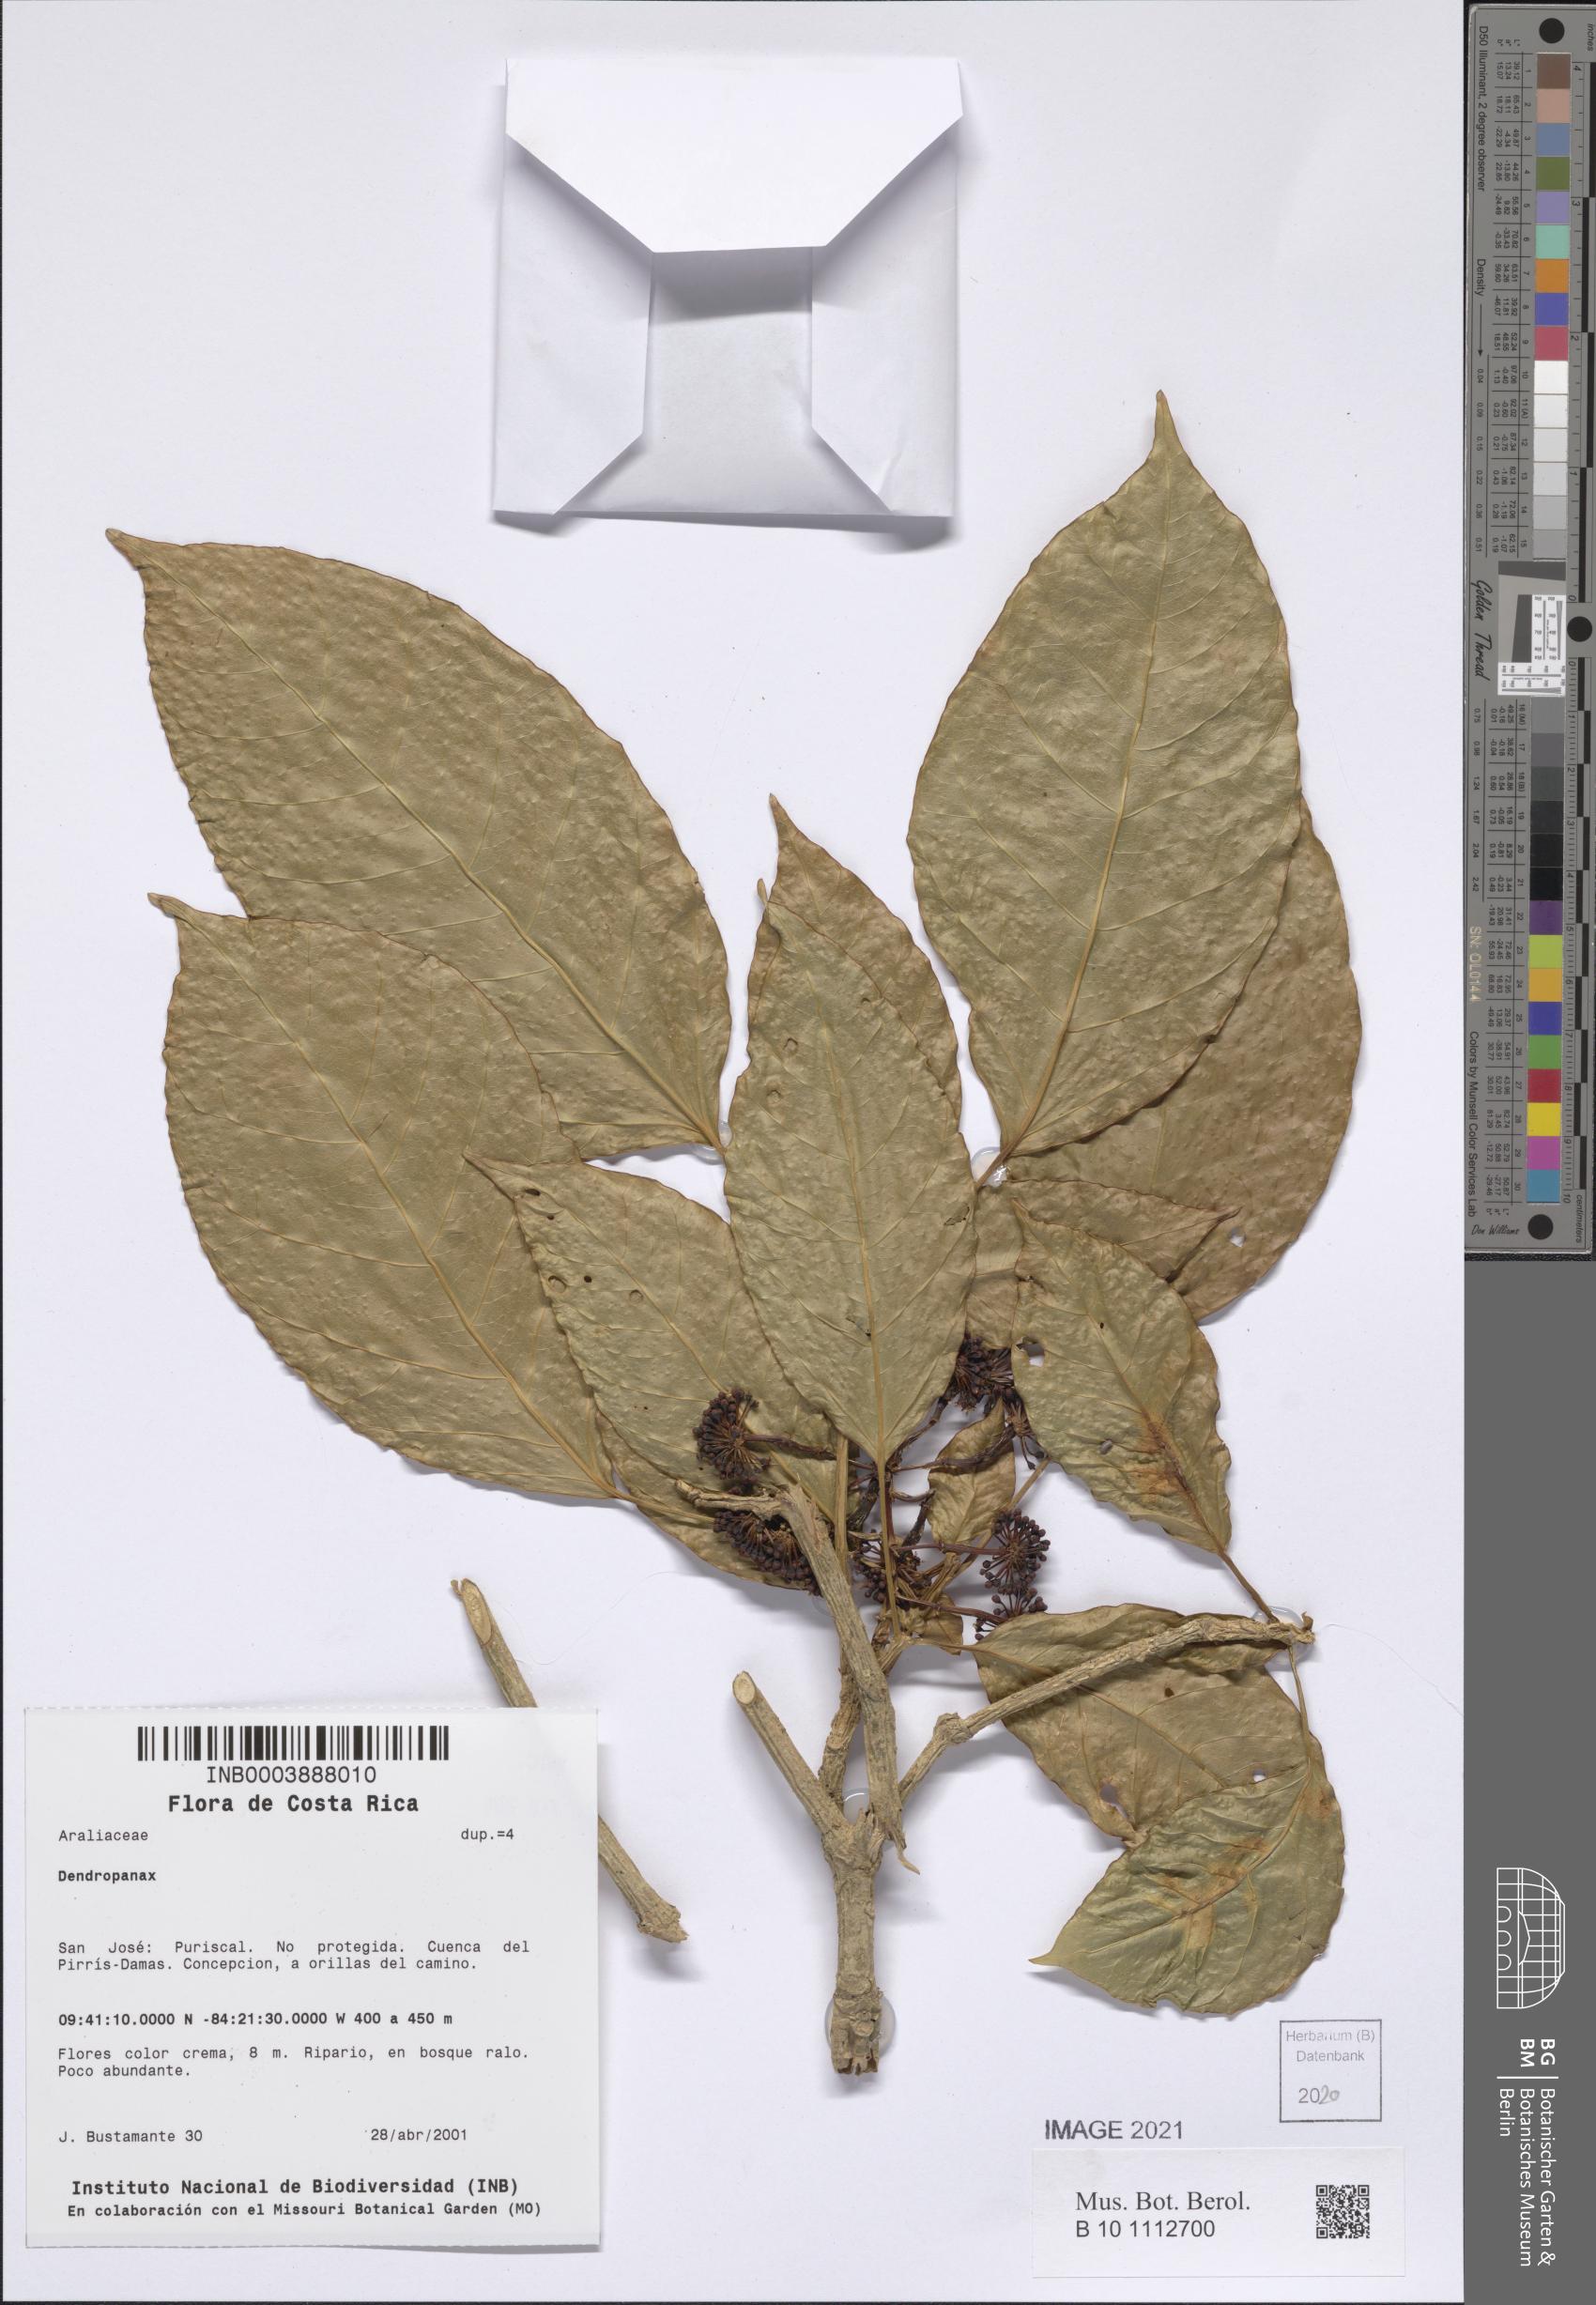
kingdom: Plantae
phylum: Tracheophyta
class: Magnoliopsida
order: Apiales
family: Araliaceae
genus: Dendropanax
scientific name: Dendropanax
